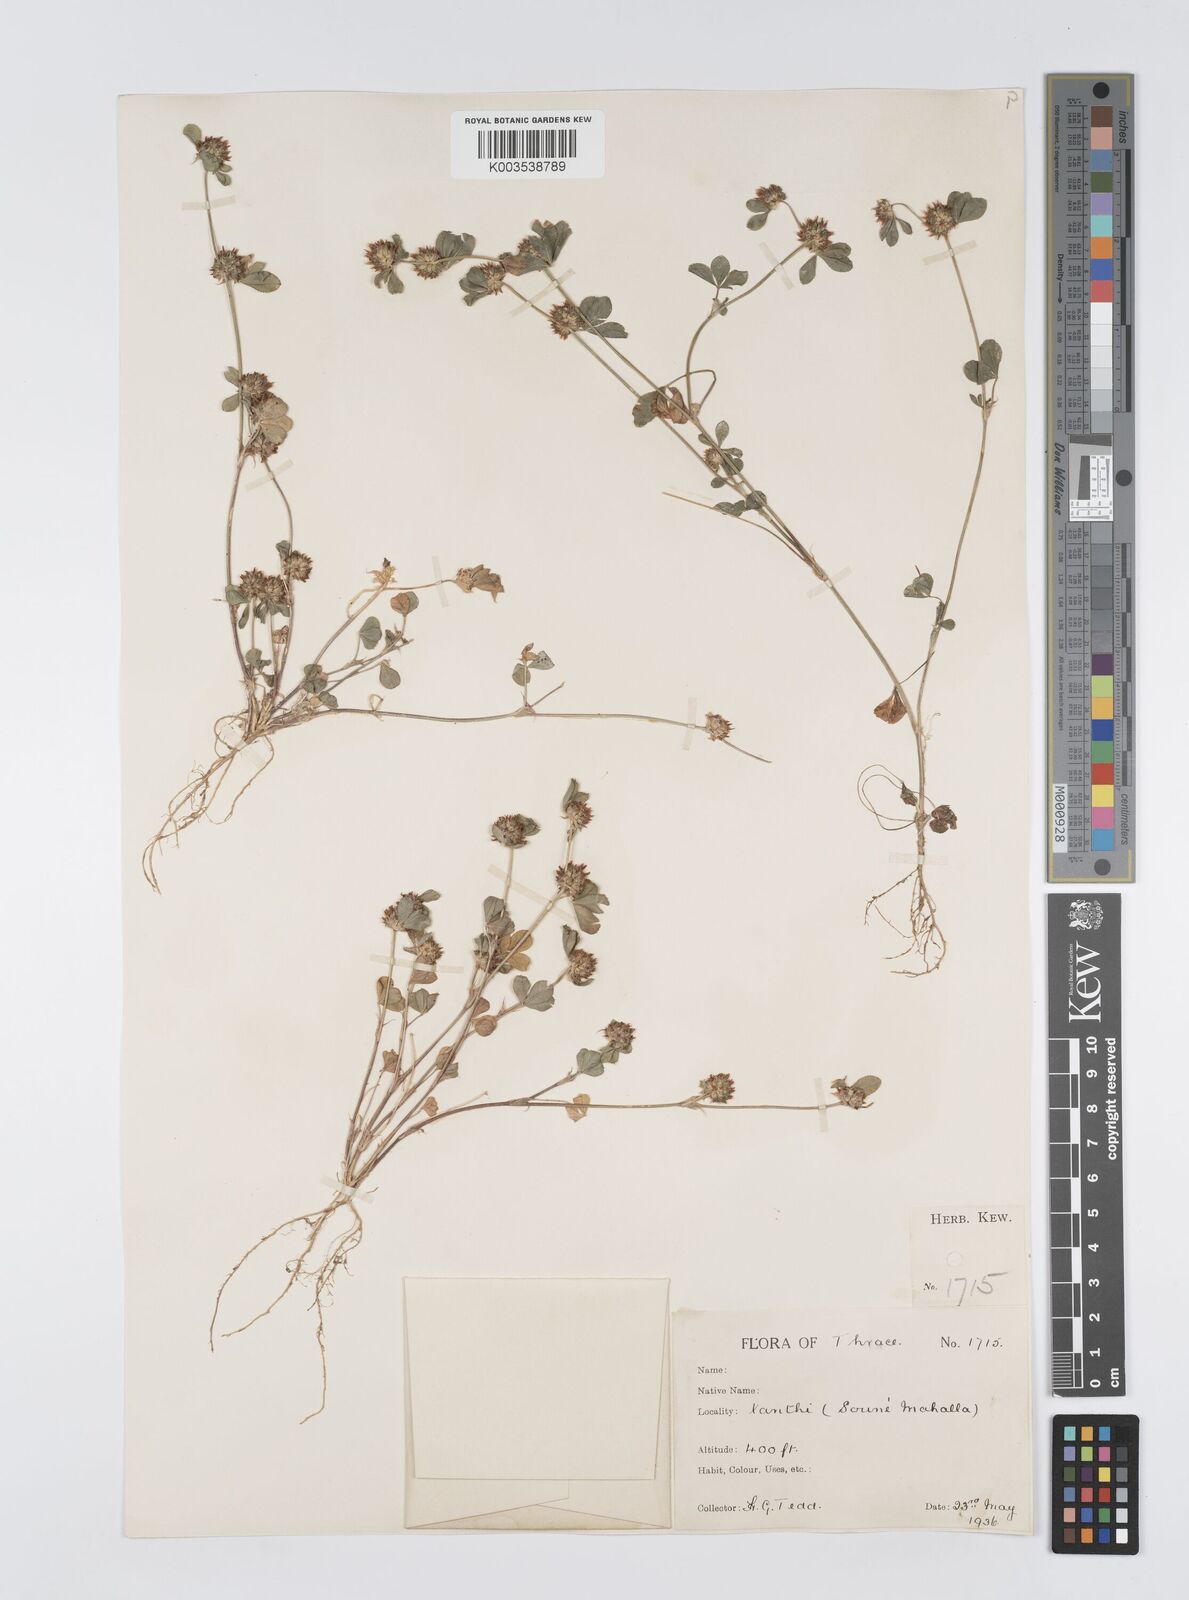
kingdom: Plantae
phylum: Tracheophyta
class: Magnoliopsida
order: Fabales
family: Fabaceae
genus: Trifolium
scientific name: Trifolium glomeratum
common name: Clustered clover
